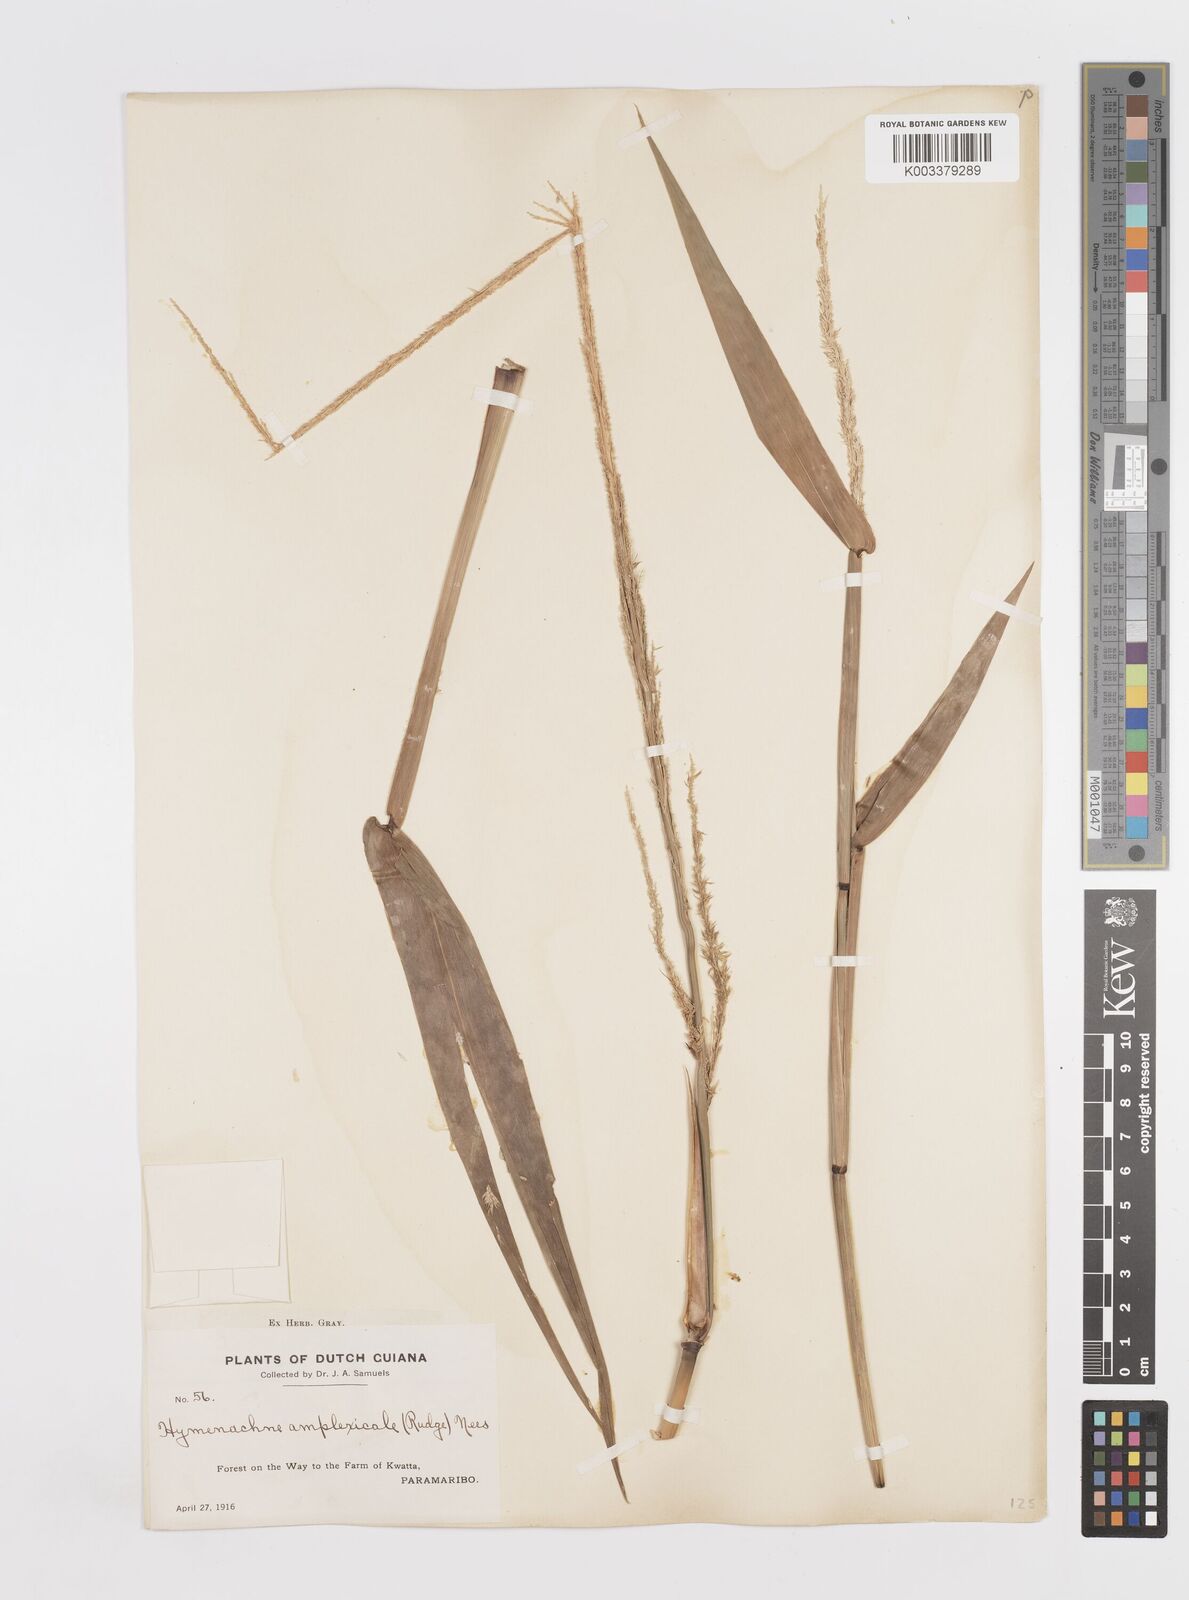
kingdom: Plantae
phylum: Tracheophyta
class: Liliopsida
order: Poales
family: Poaceae
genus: Hymenachne
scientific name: Hymenachne amplexicaulis
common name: Olive hymenachne
